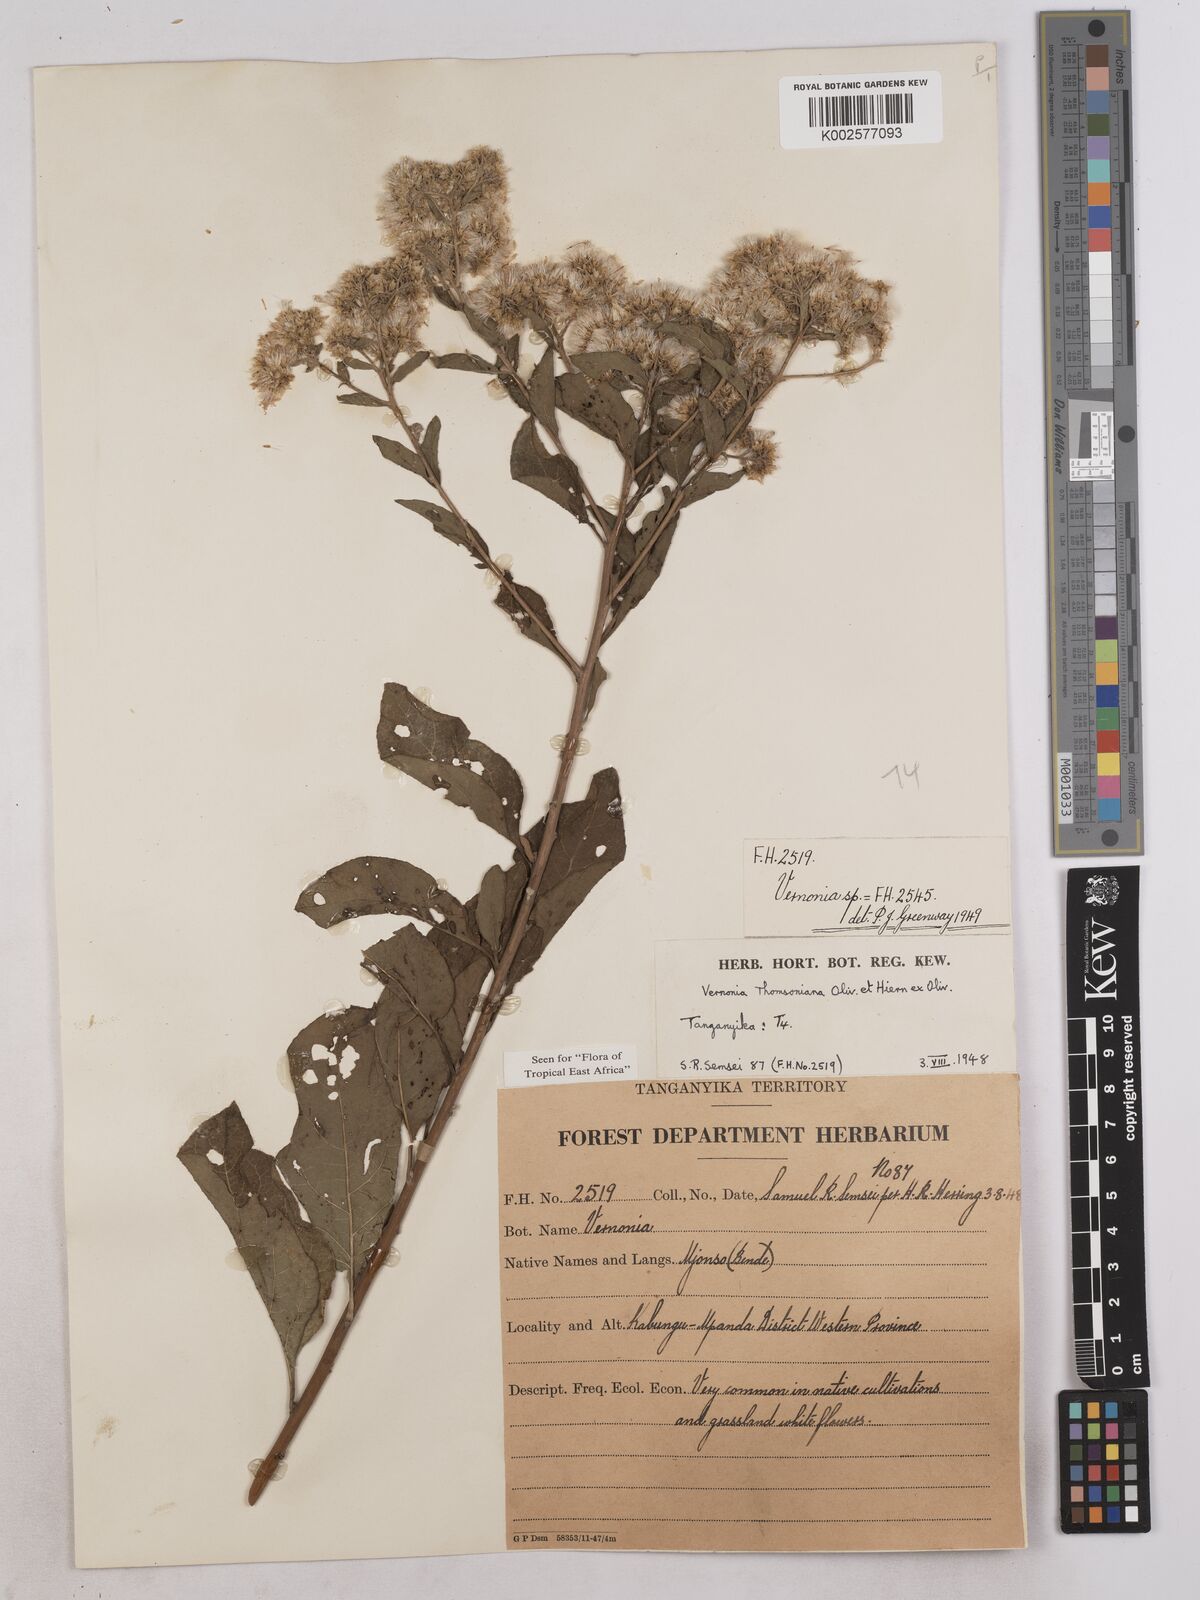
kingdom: Plantae
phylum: Tracheophyta
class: Magnoliopsida
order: Asterales
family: Asteraceae
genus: Gymnanthemum
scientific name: Gymnanthemum thomsonianum
